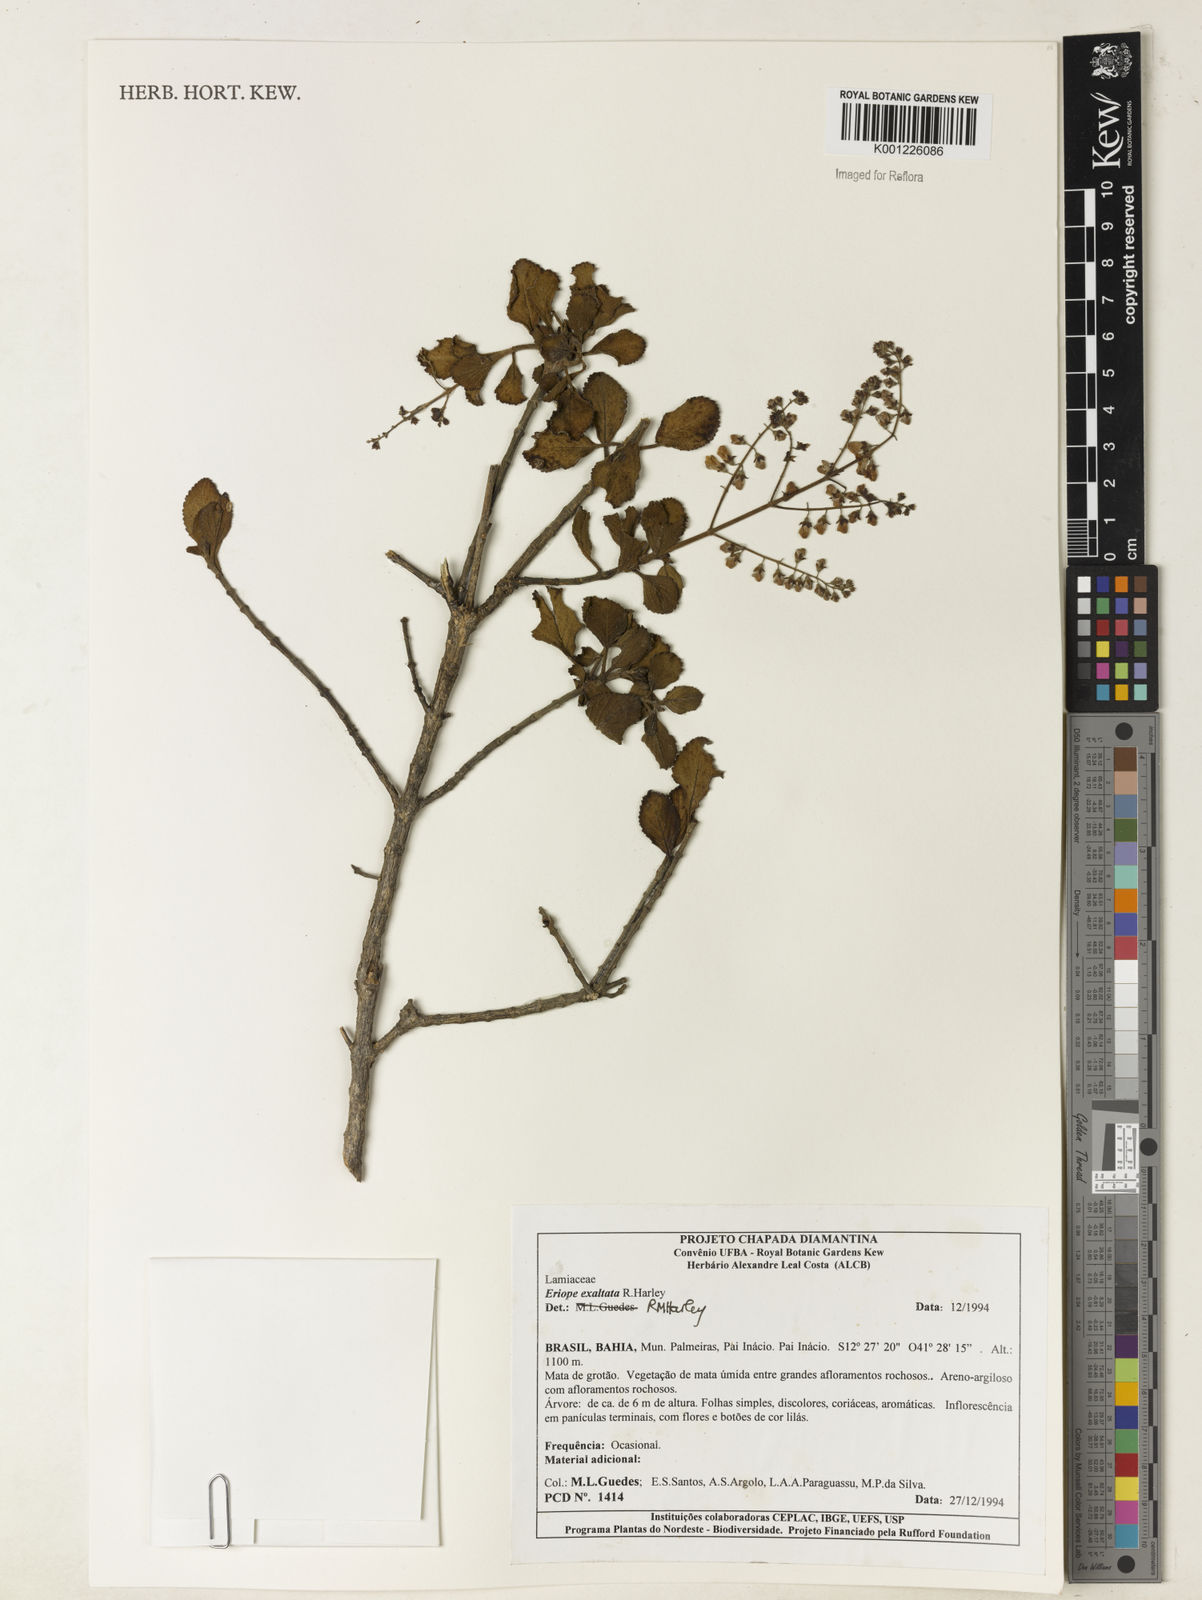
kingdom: Plantae
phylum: Tracheophyta
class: Magnoliopsida
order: Lamiales
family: Lamiaceae
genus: Eriope
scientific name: Eriope exaltata
